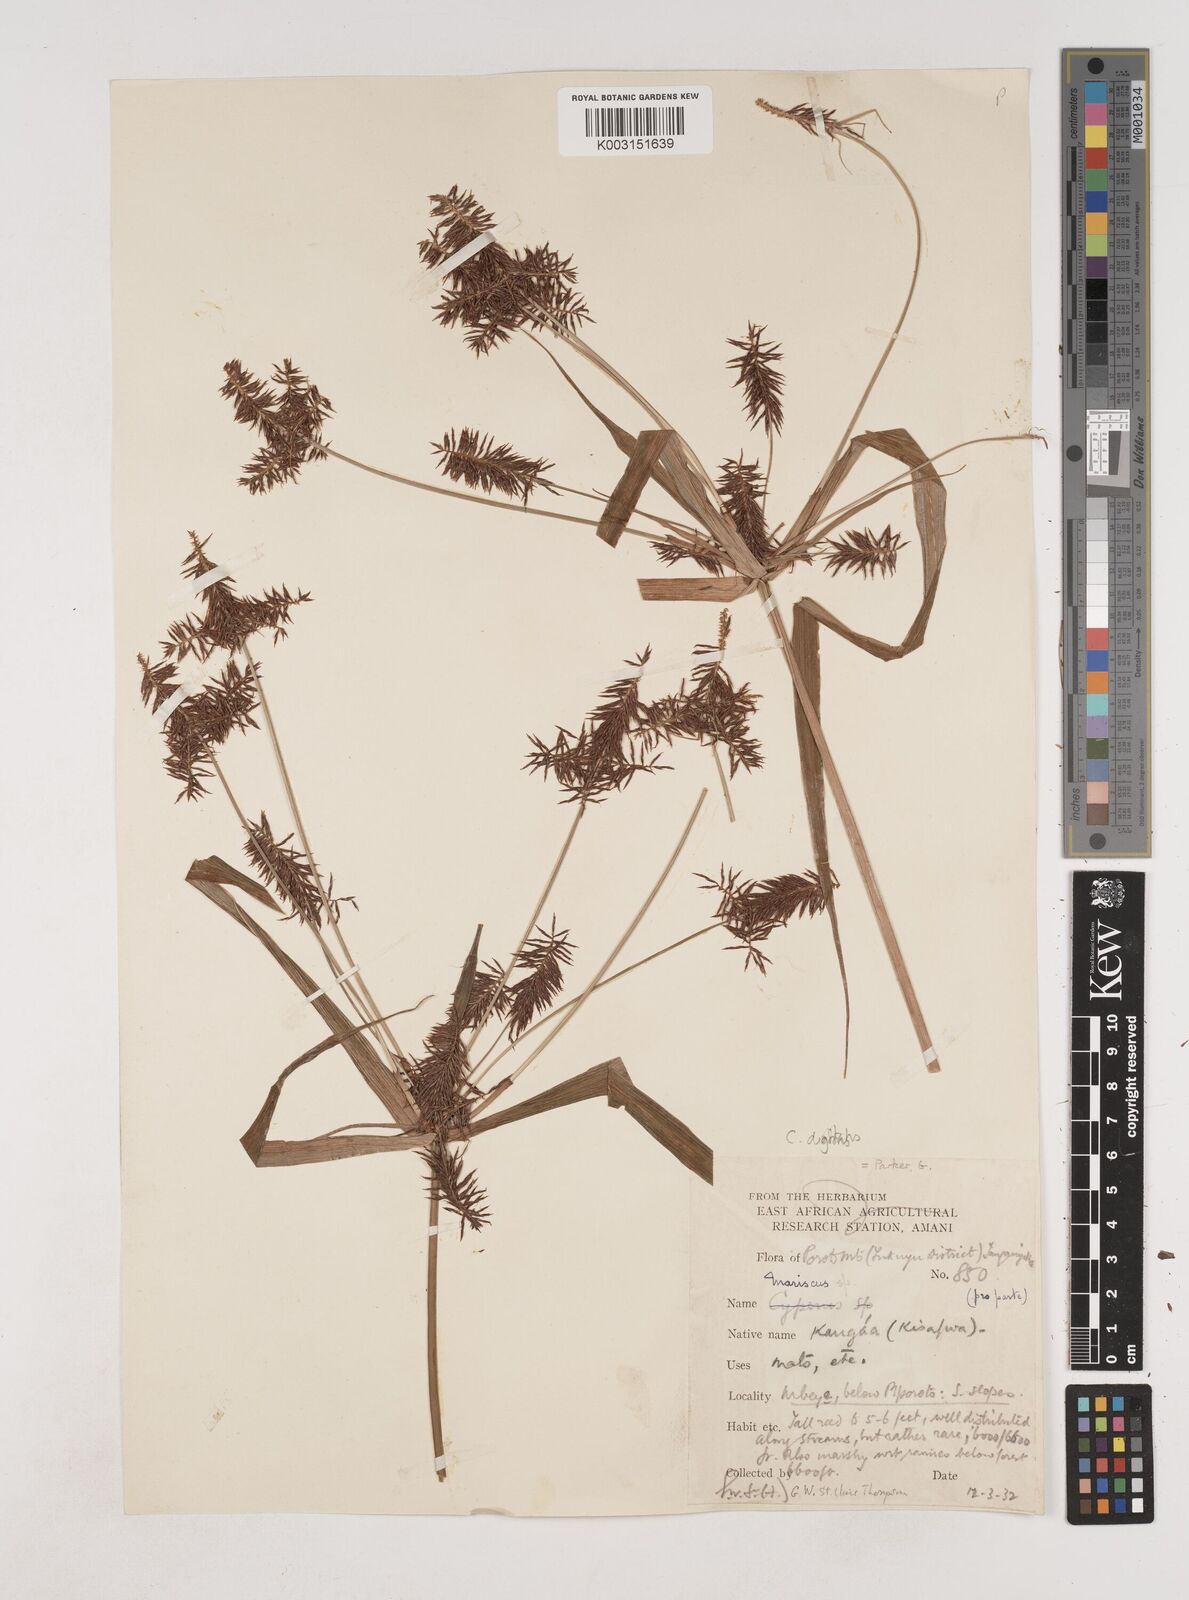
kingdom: Plantae
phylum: Tracheophyta
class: Liliopsida
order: Poales
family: Cyperaceae
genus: Cyperus
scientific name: Cyperus digitatus
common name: Finger flatsedge
